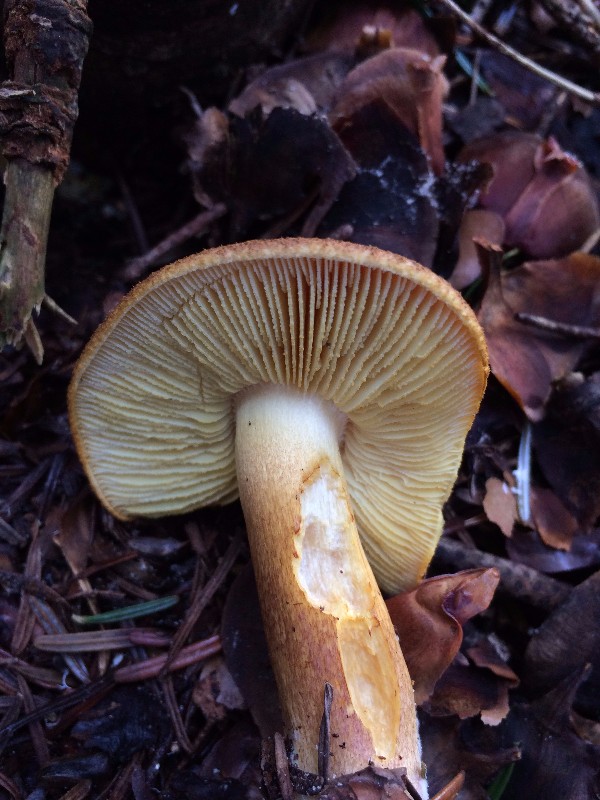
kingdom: Fungi
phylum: Basidiomycota
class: Agaricomycetes
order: Agaricales
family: Tricholomataceae
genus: Tricholomopsis
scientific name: Tricholomopsis rutilans
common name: purpur-væbnerhat
